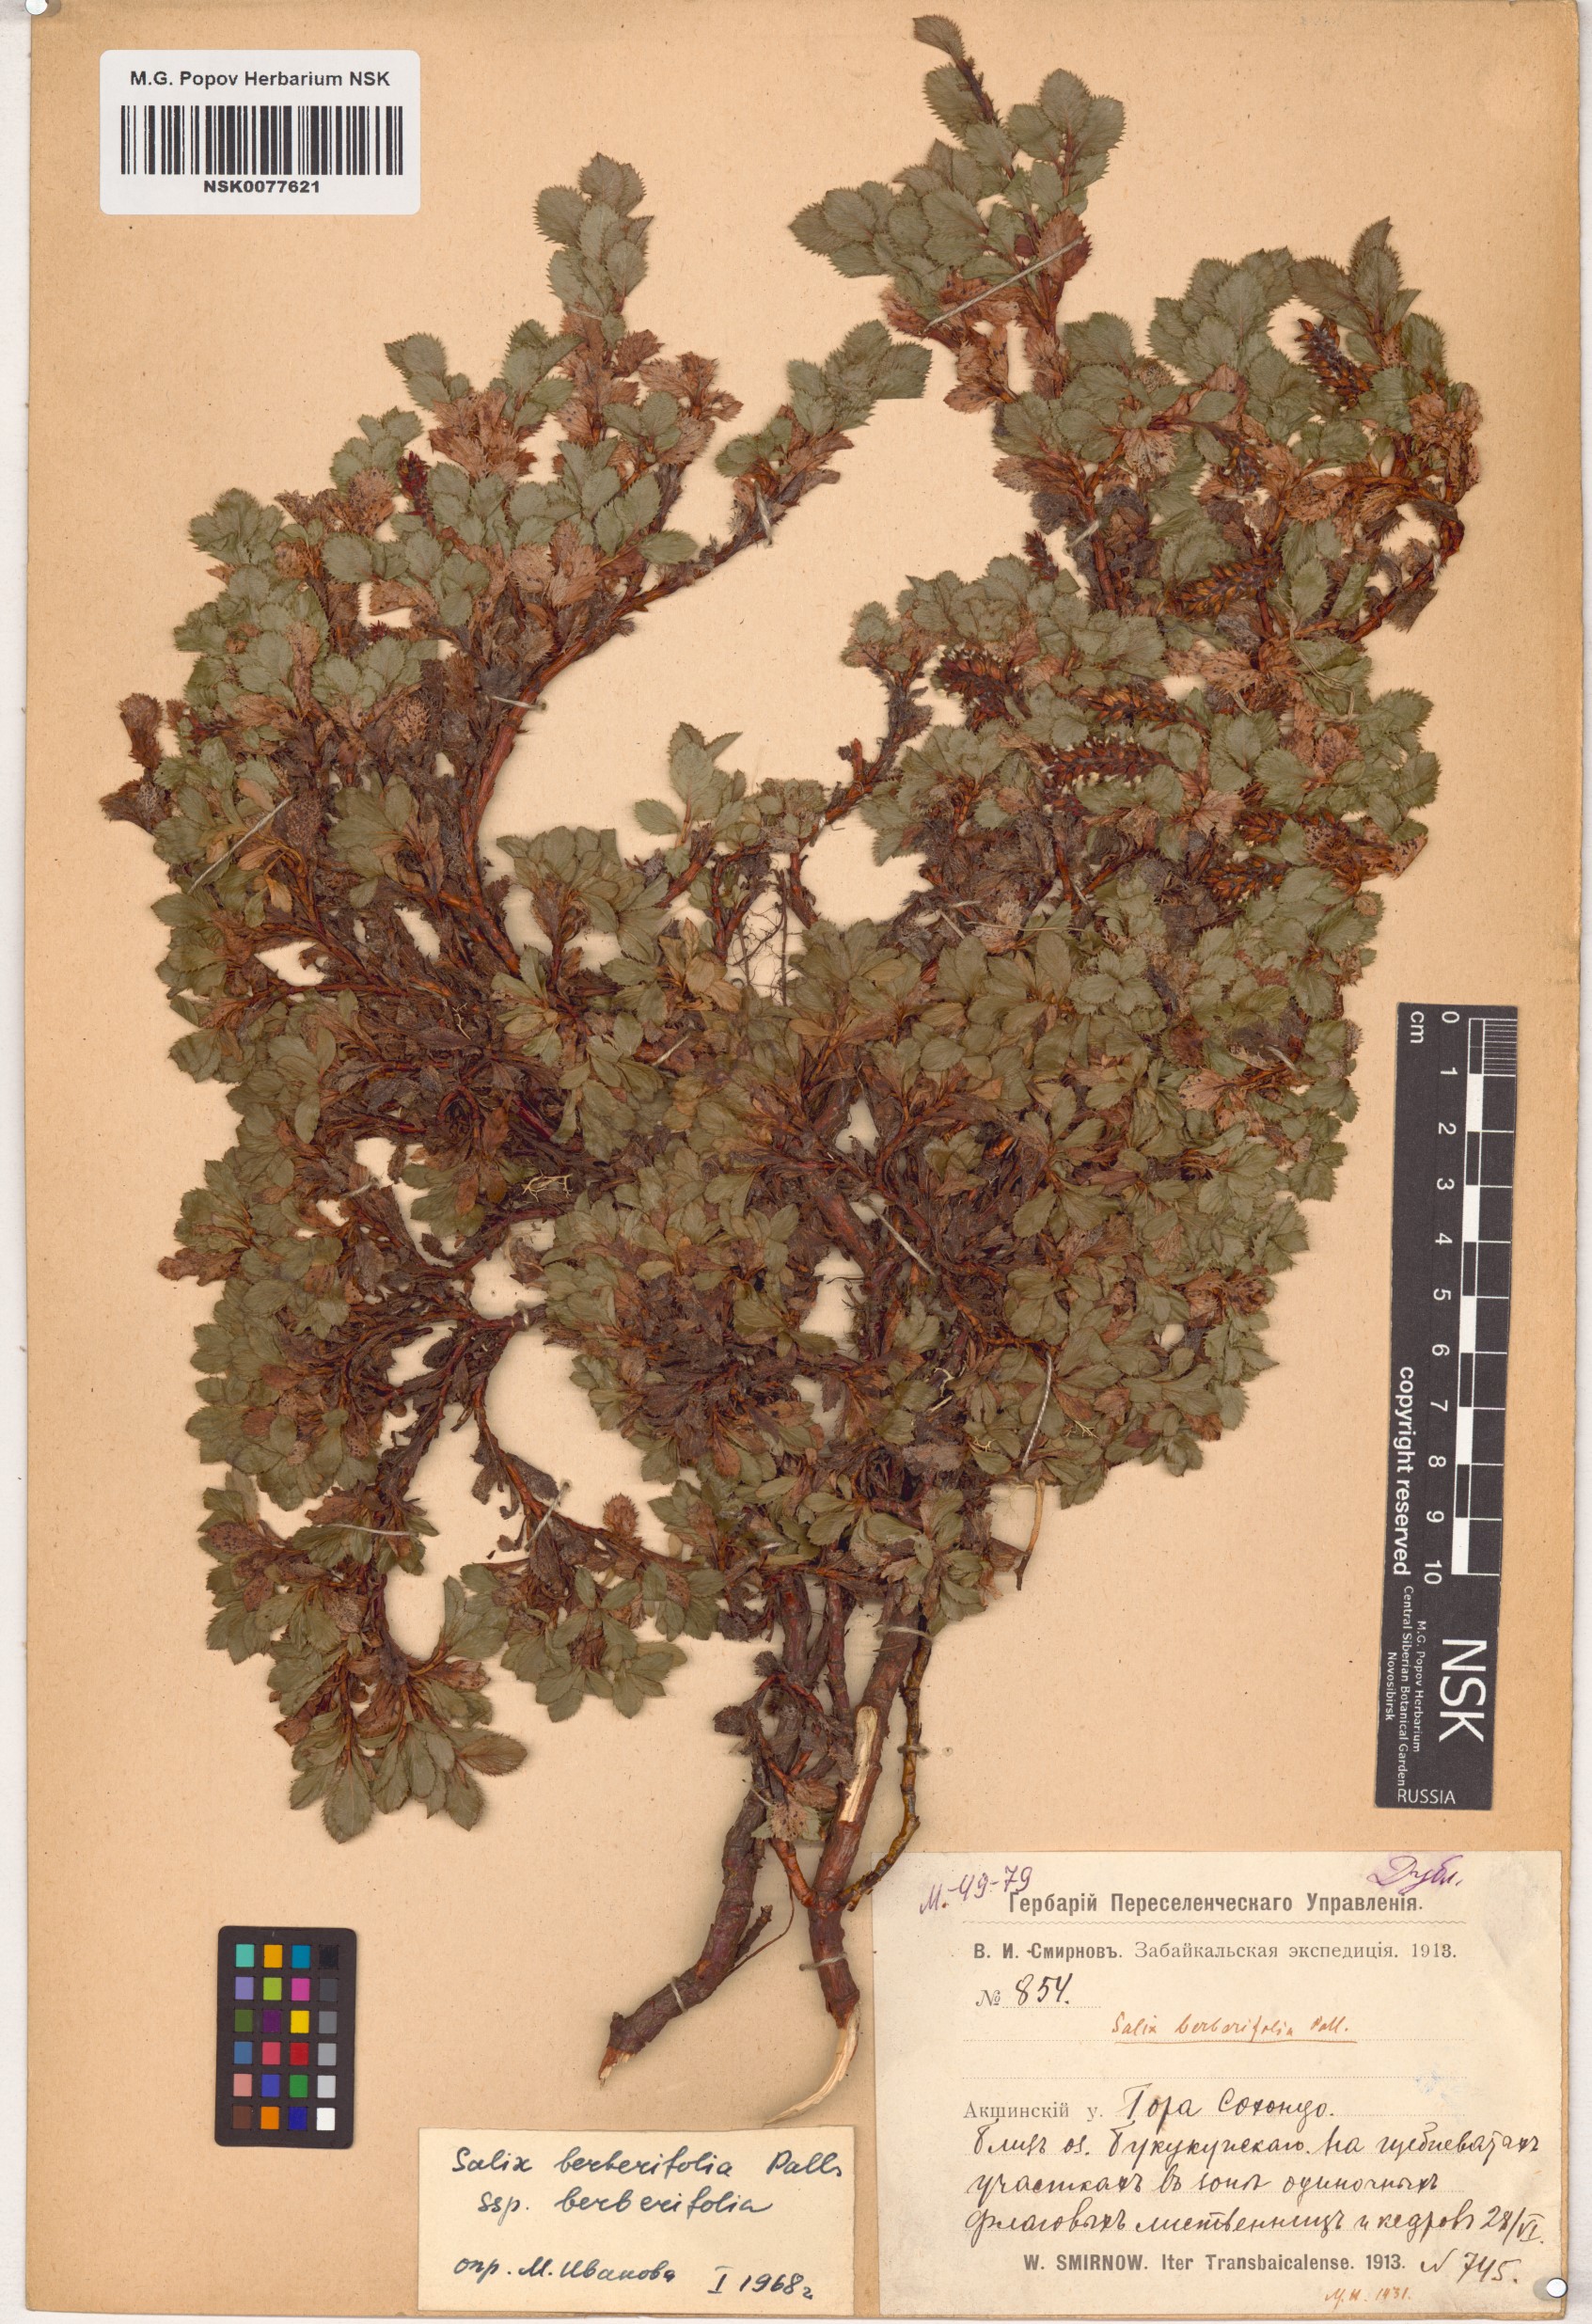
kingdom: Plantae
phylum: Tracheophyta
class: Magnoliopsida
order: Malpighiales
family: Salicaceae
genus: Salix
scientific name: Salix berberifolia
